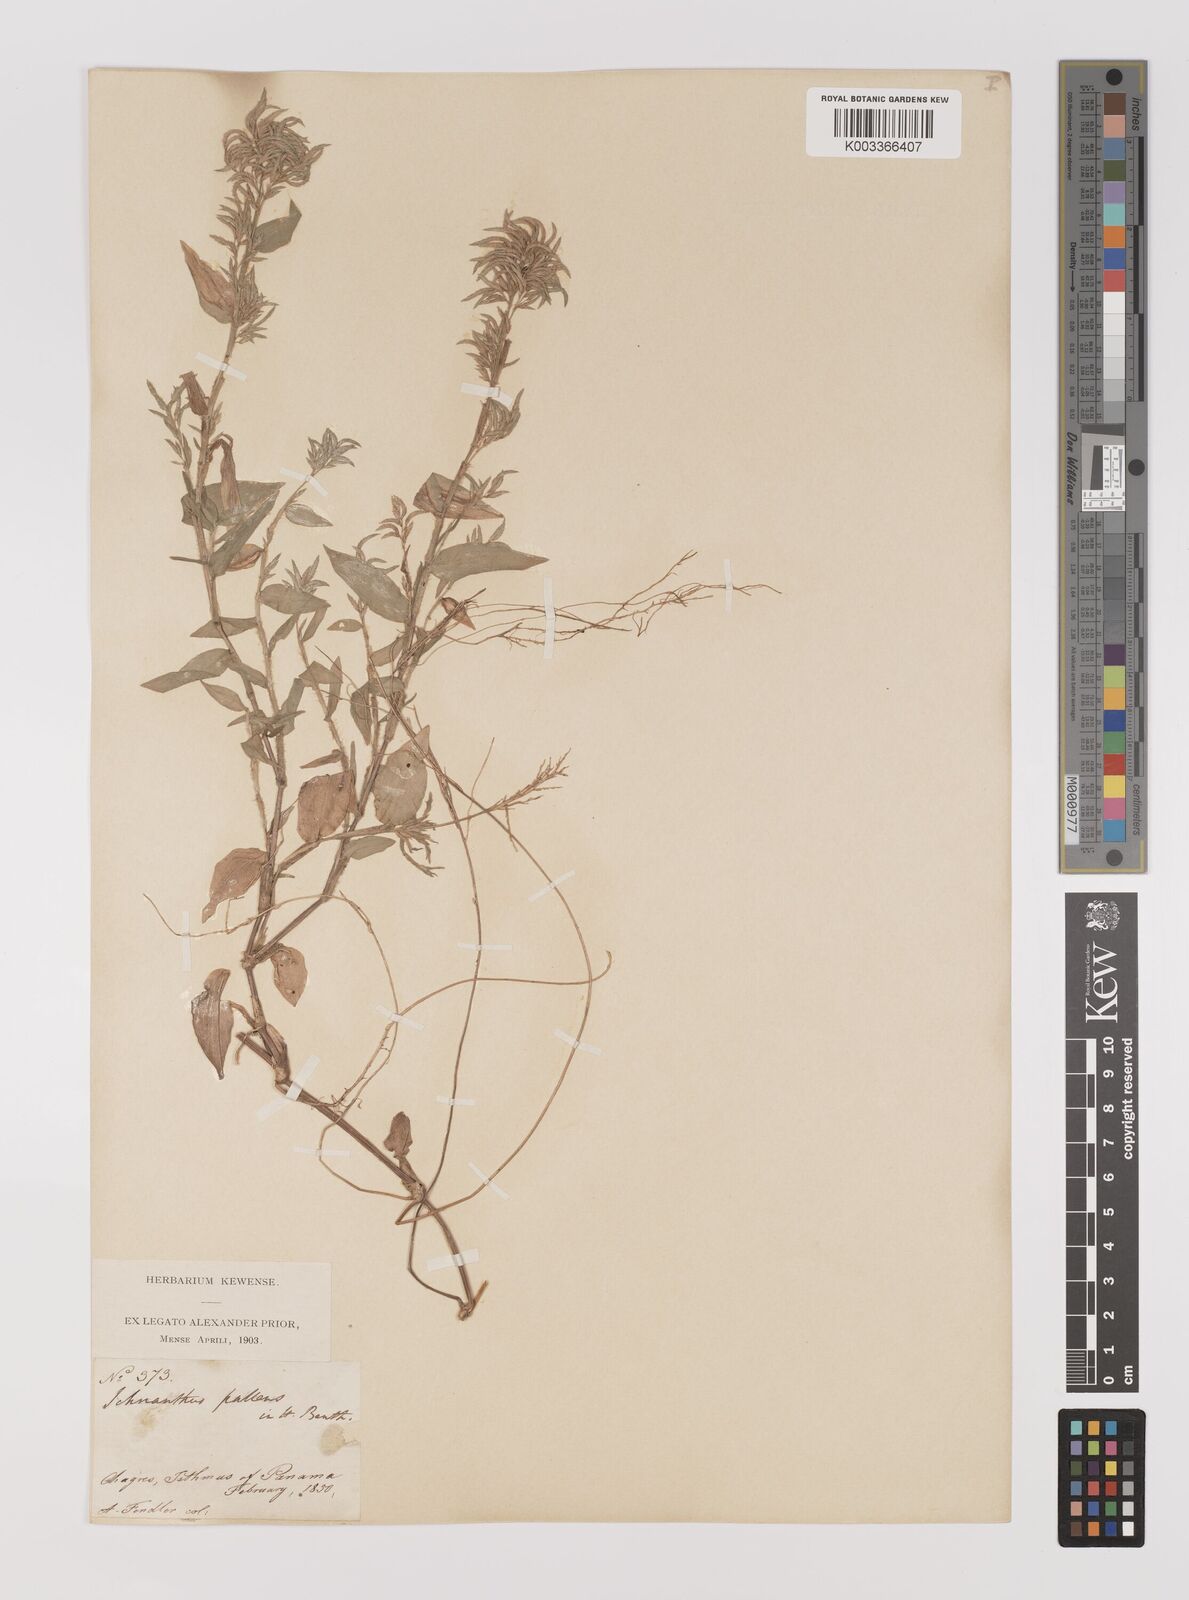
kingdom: Plantae
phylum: Tracheophyta
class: Liliopsida
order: Poales
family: Poaceae
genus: Ichnanthus
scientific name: Ichnanthus pallens
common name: Water grass
